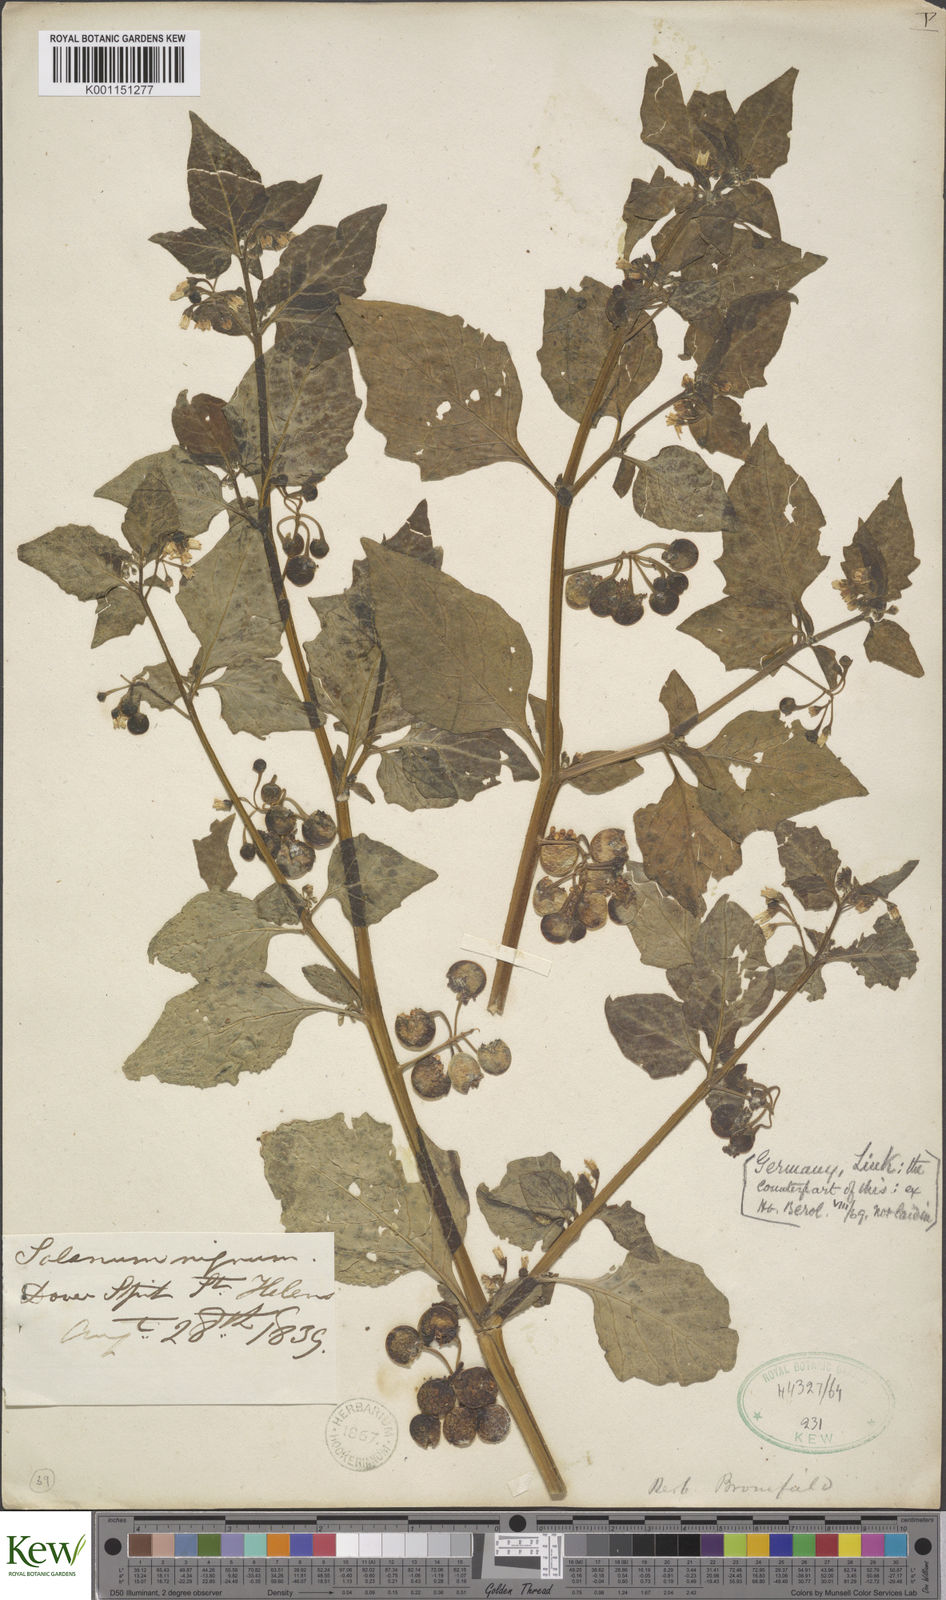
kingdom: Plantae
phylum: Tracheophyta
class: Magnoliopsida
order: Solanales
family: Solanaceae
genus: Solanum
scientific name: Solanum nigrum
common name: Black nightshade
